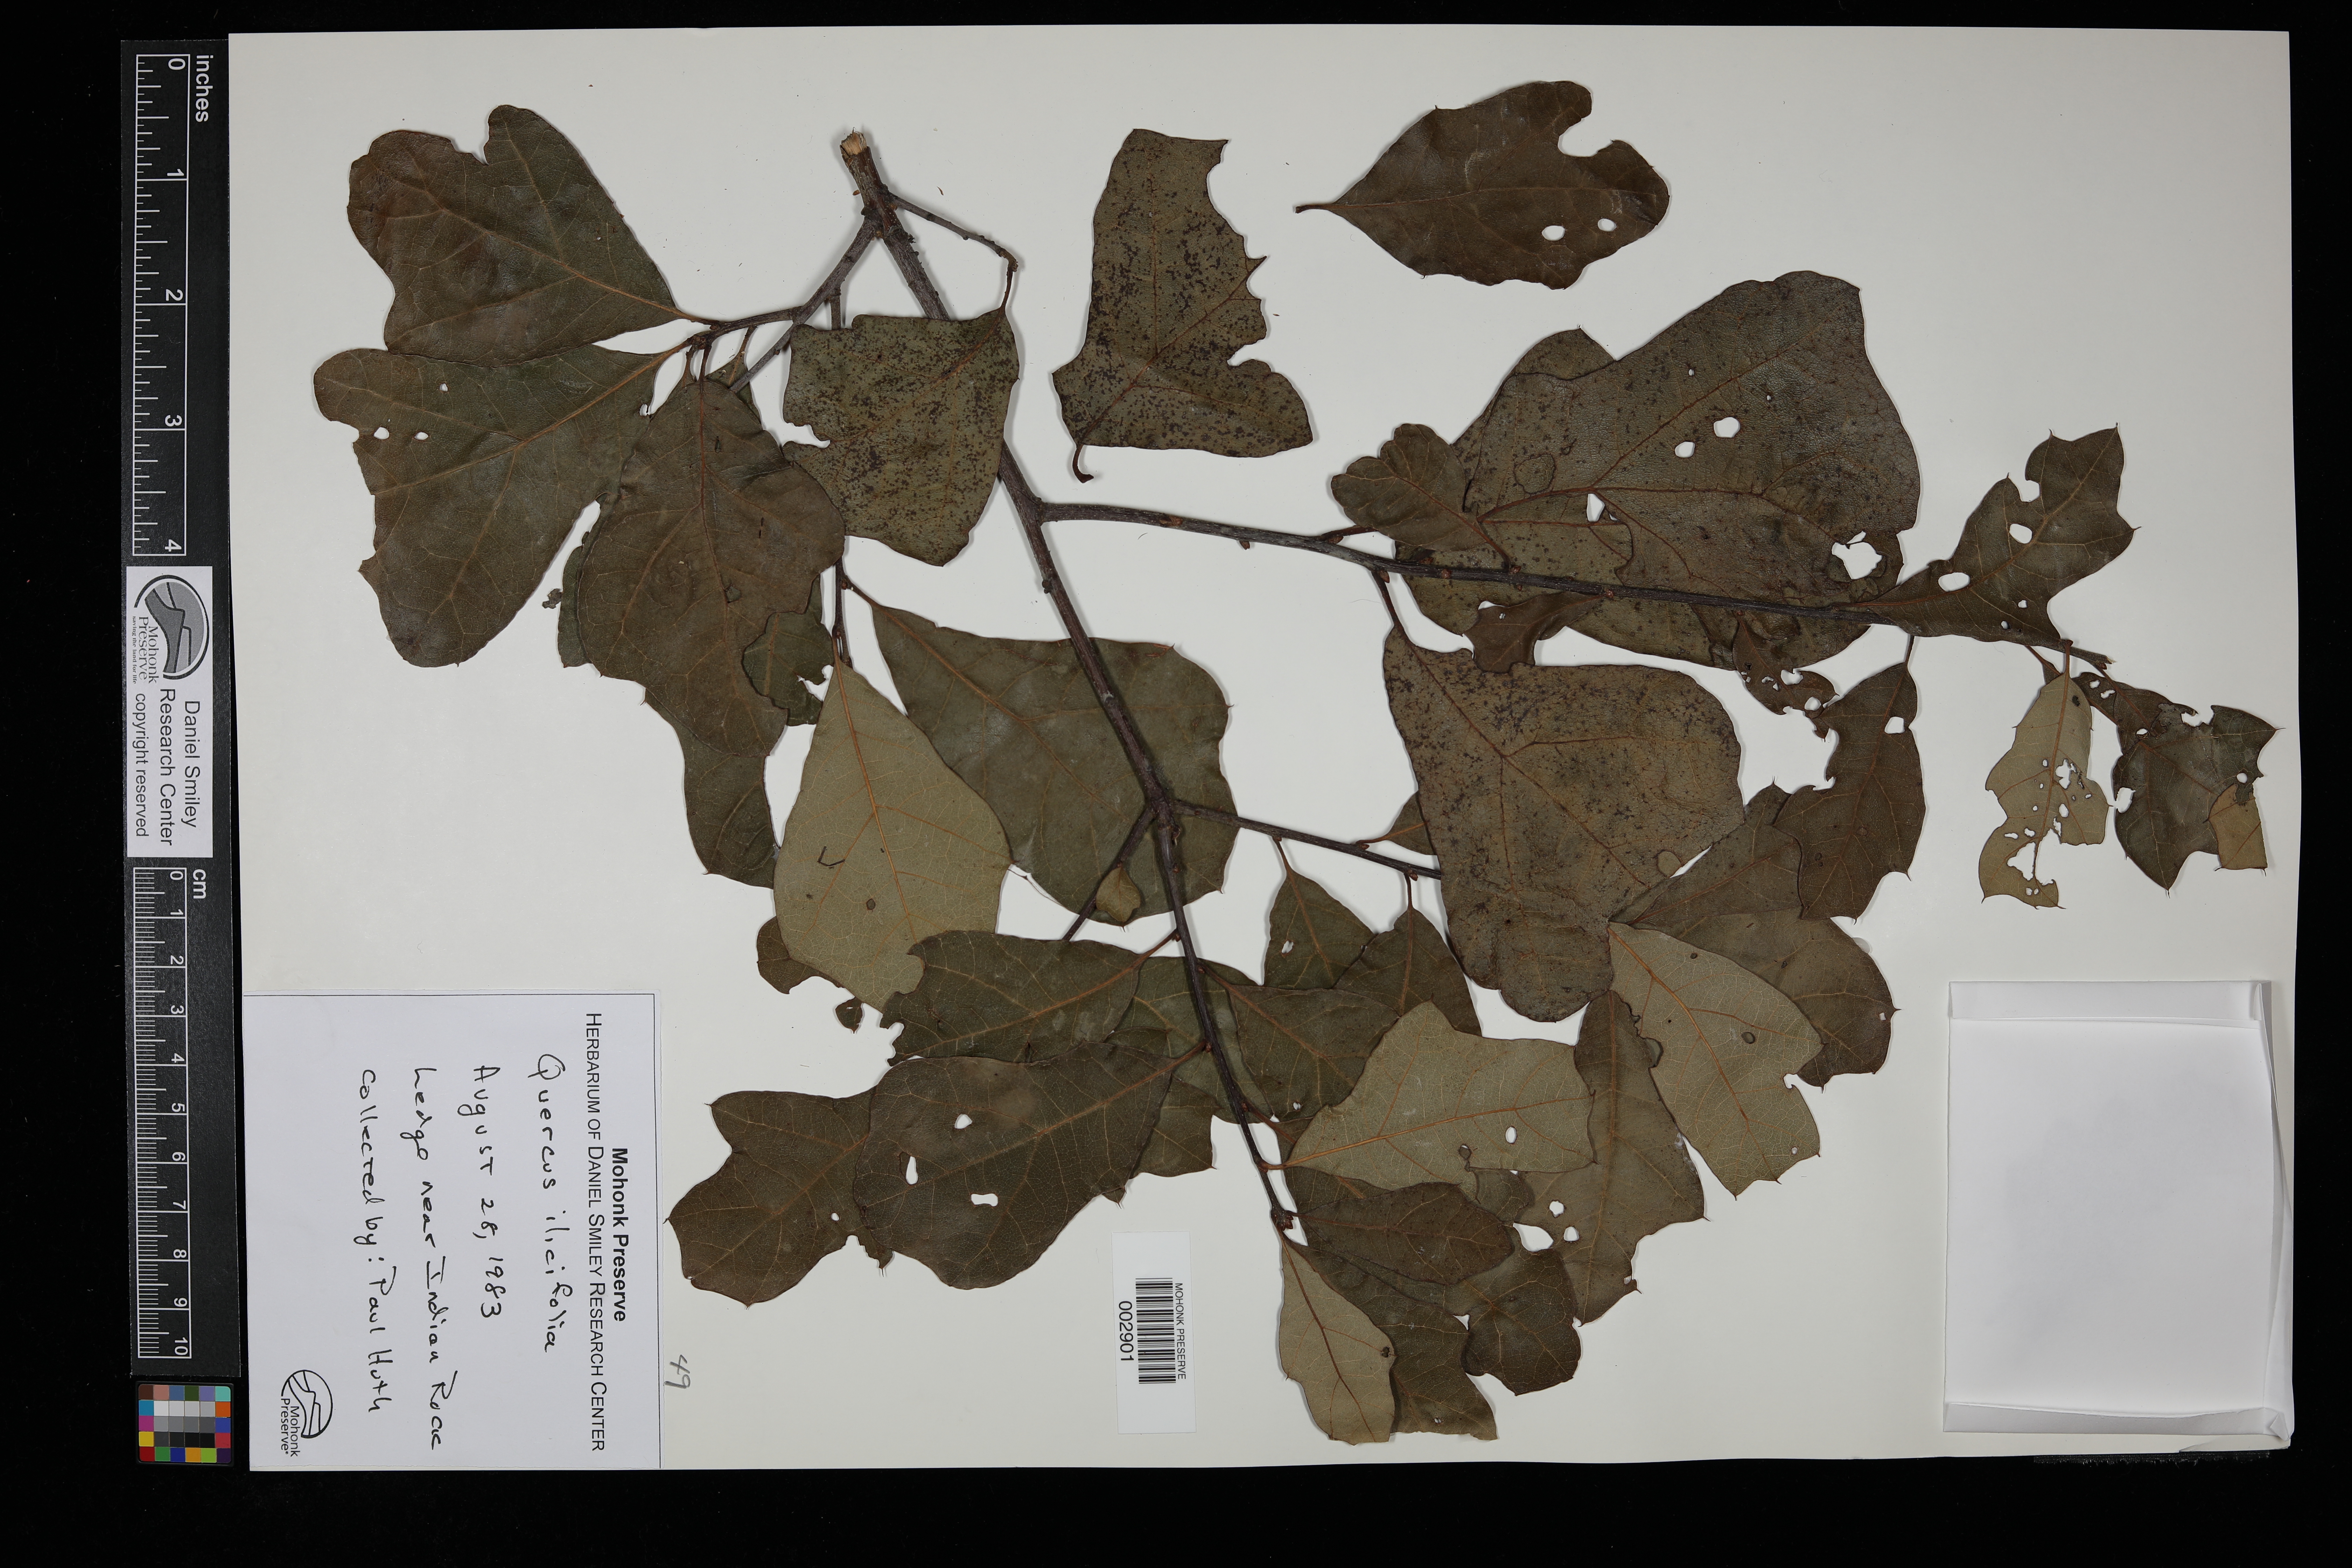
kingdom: Plantae
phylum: Tracheophyta
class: Magnoliopsida
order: Fagales
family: Fagaceae
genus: Quercus
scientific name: Quercus ilicifolia
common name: Bear oak
